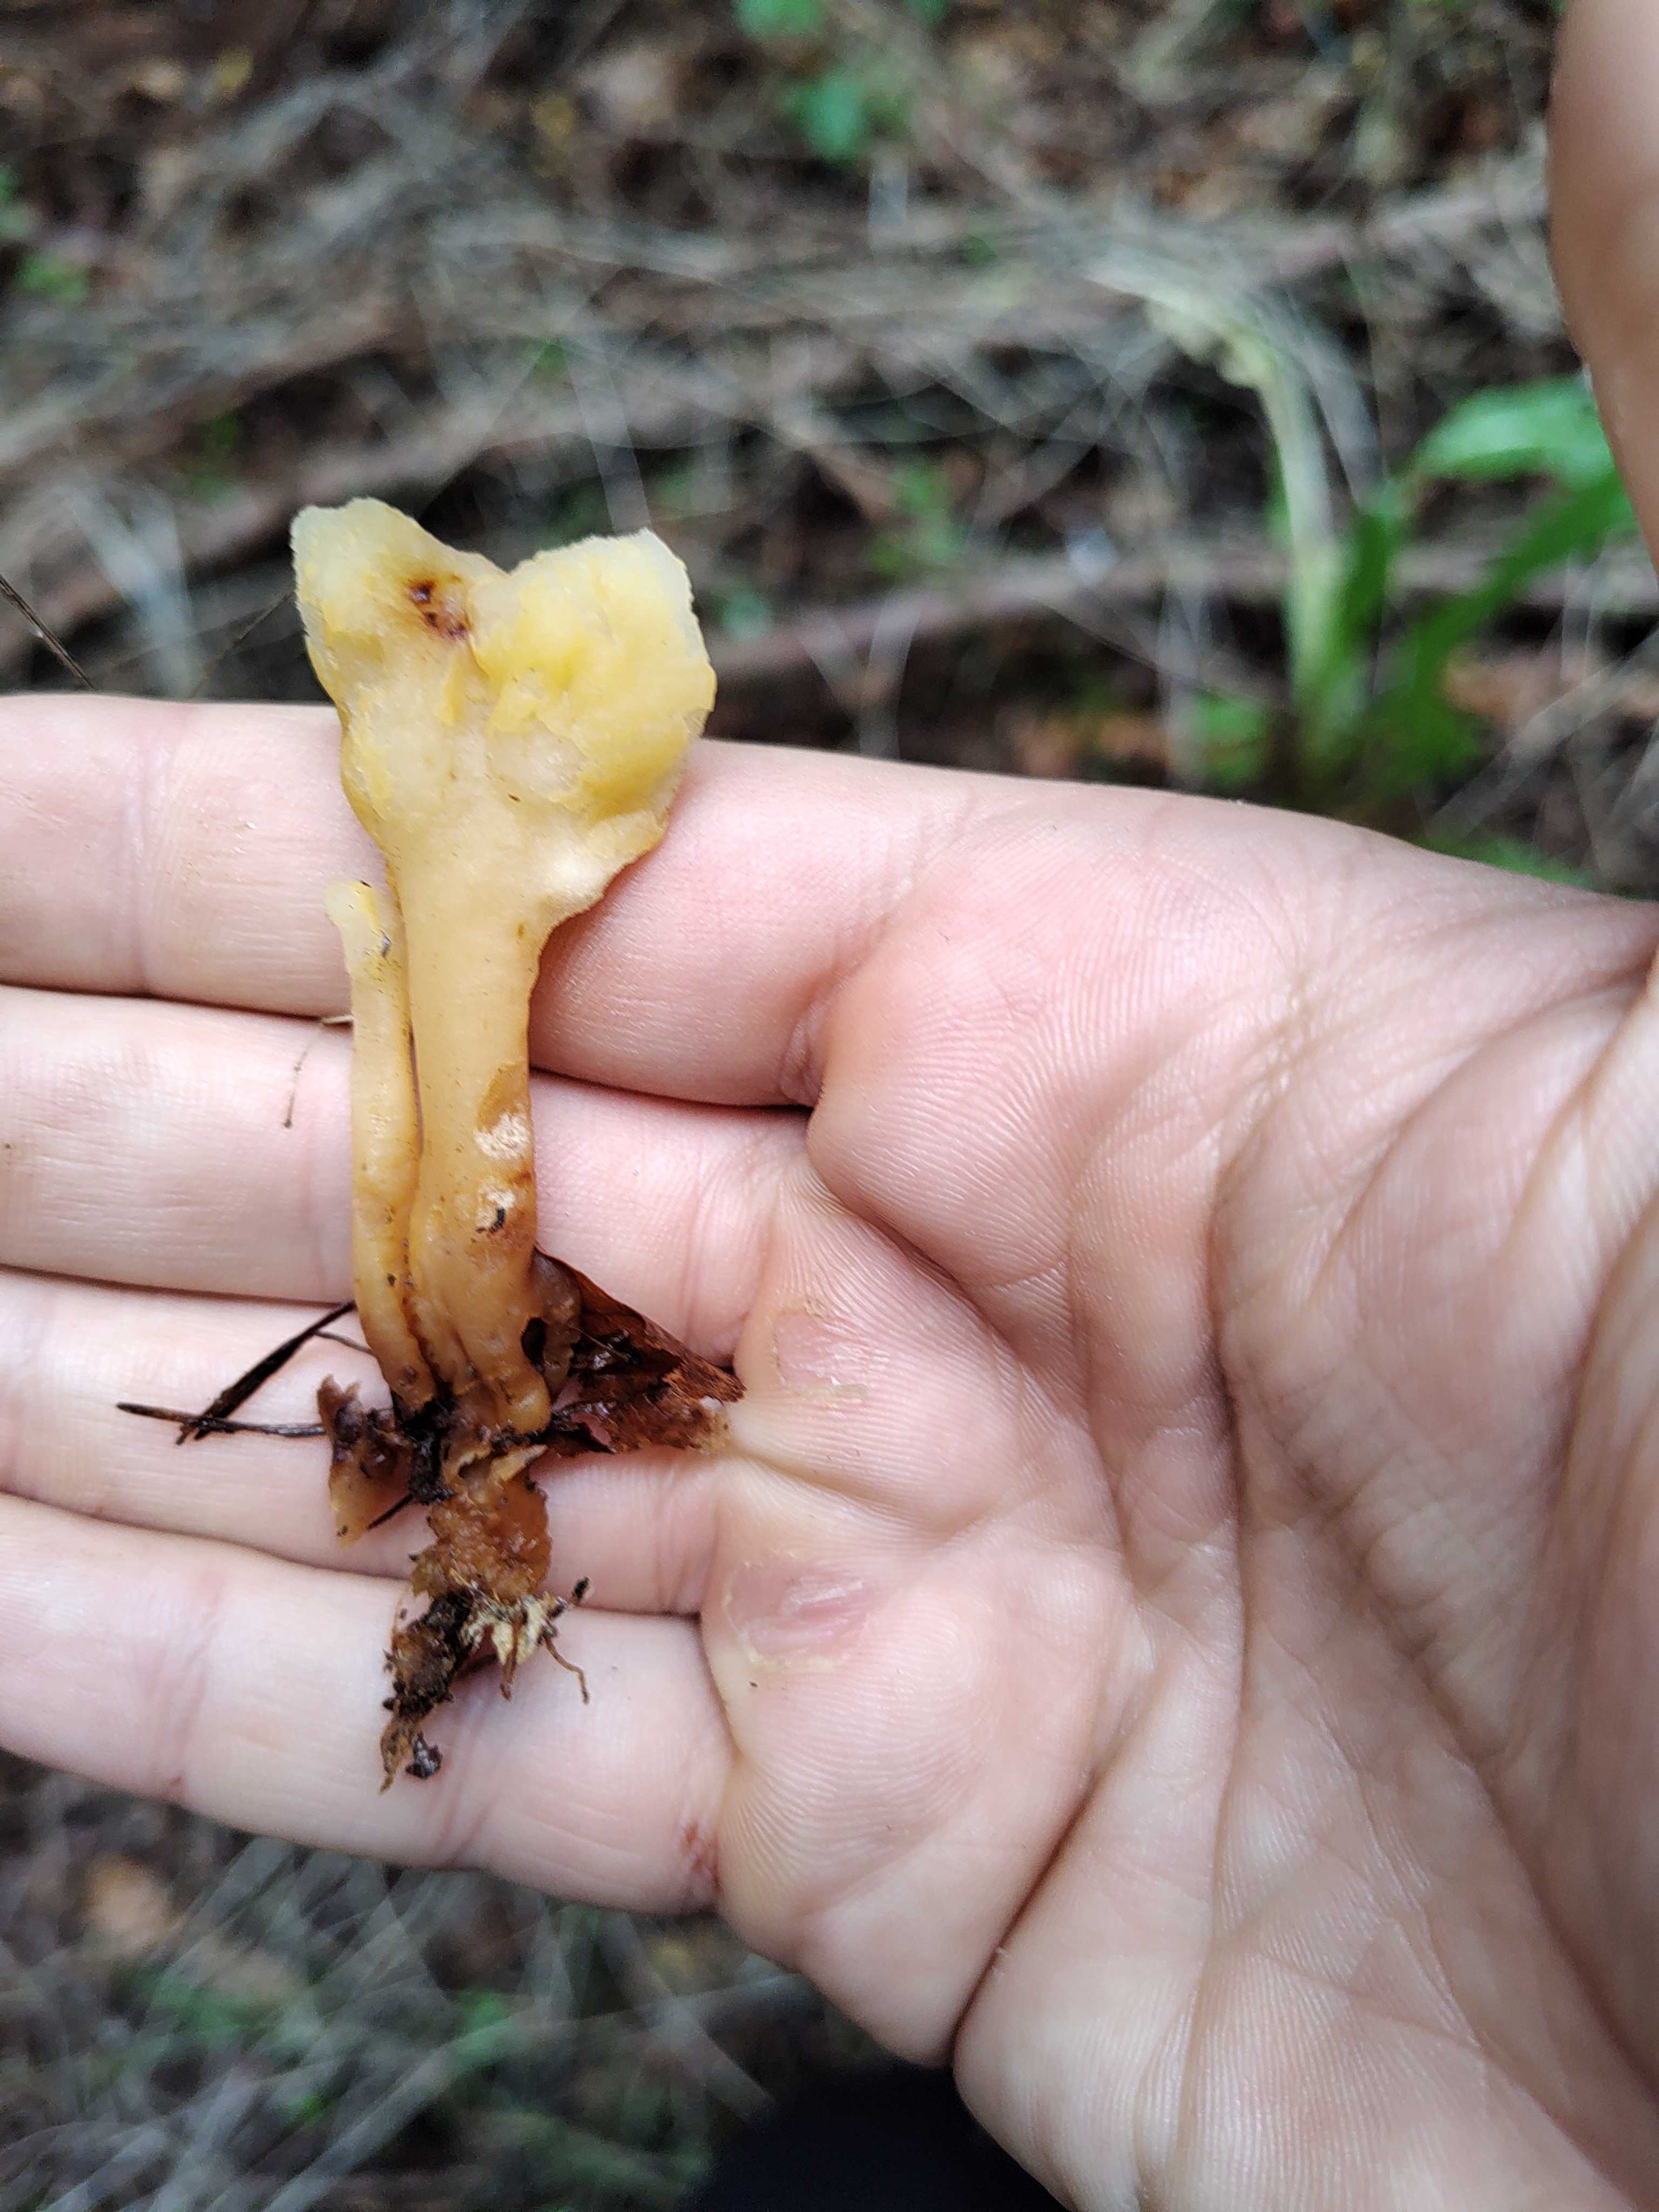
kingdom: Fungi
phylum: Ascomycota
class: Leotiomycetes
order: Rhytismatales
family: Cudoniaceae
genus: Spathularia
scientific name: Spathularia flavida
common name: gul spatelsvamp
